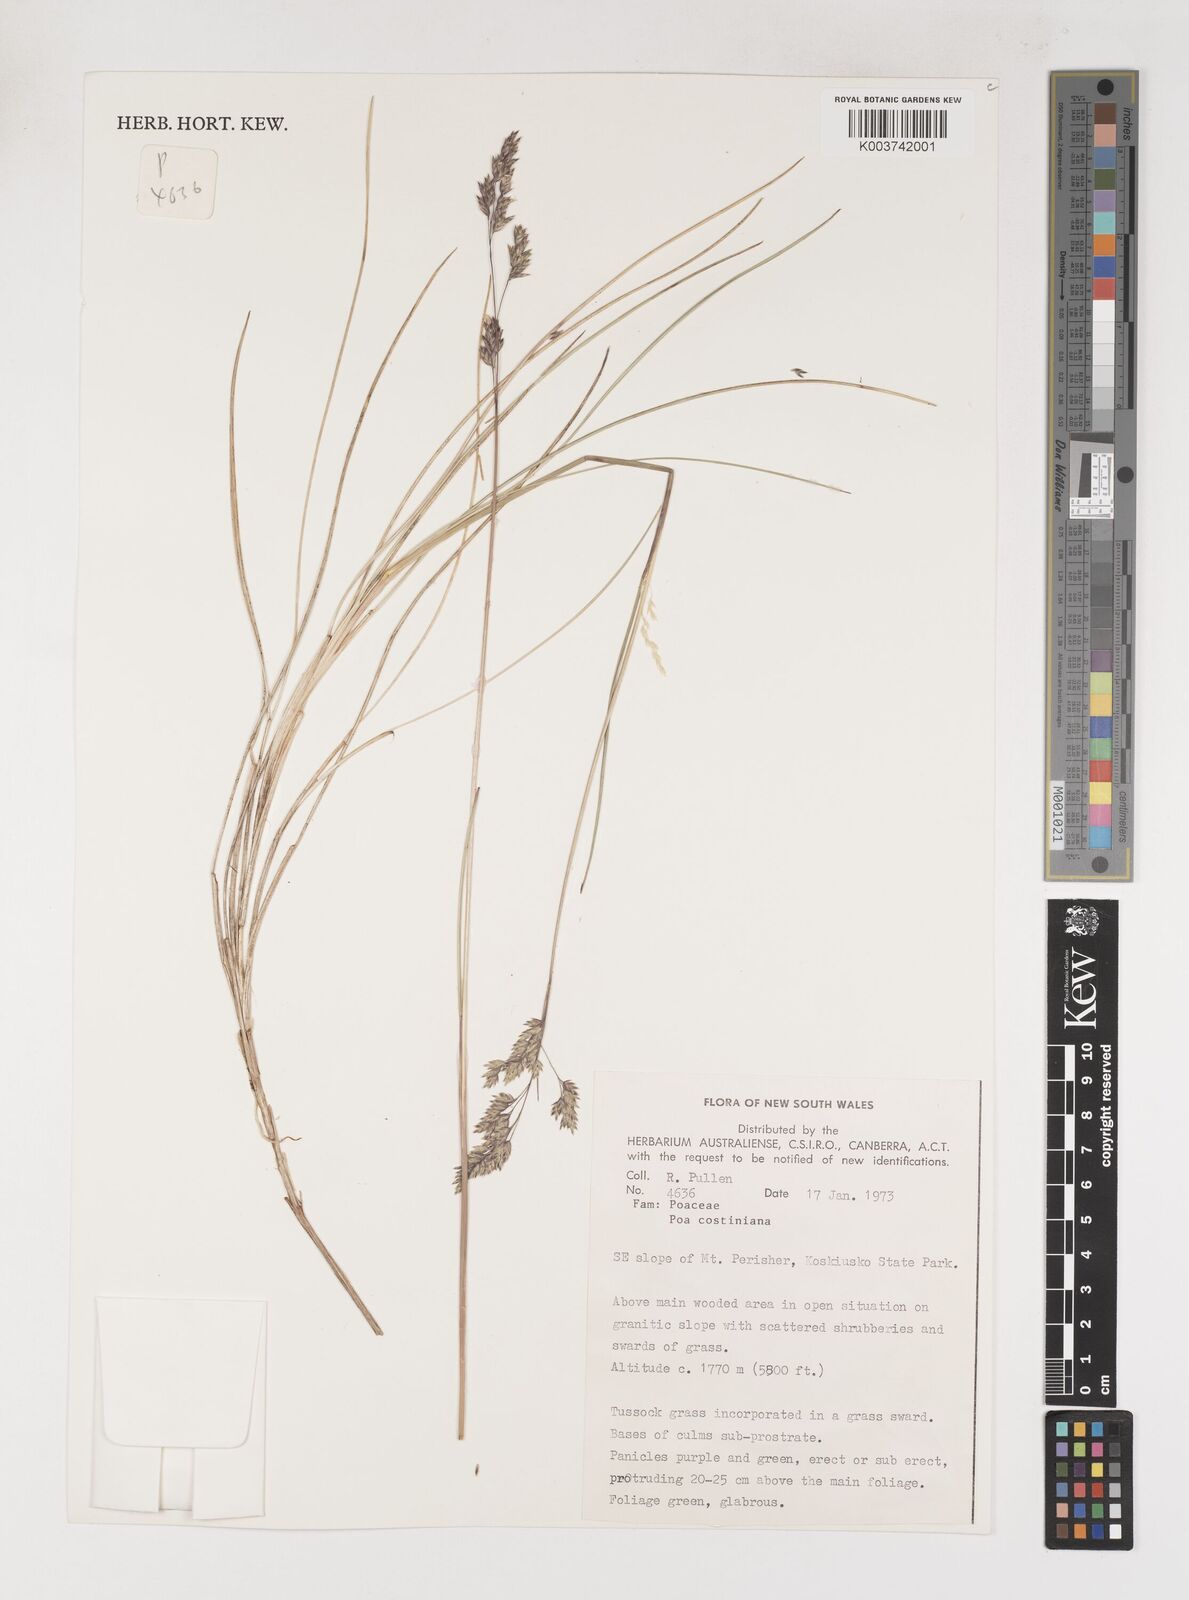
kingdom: Plantae
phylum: Tracheophyta
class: Liliopsida
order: Poales
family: Poaceae
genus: Poa
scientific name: Poa costiniana
